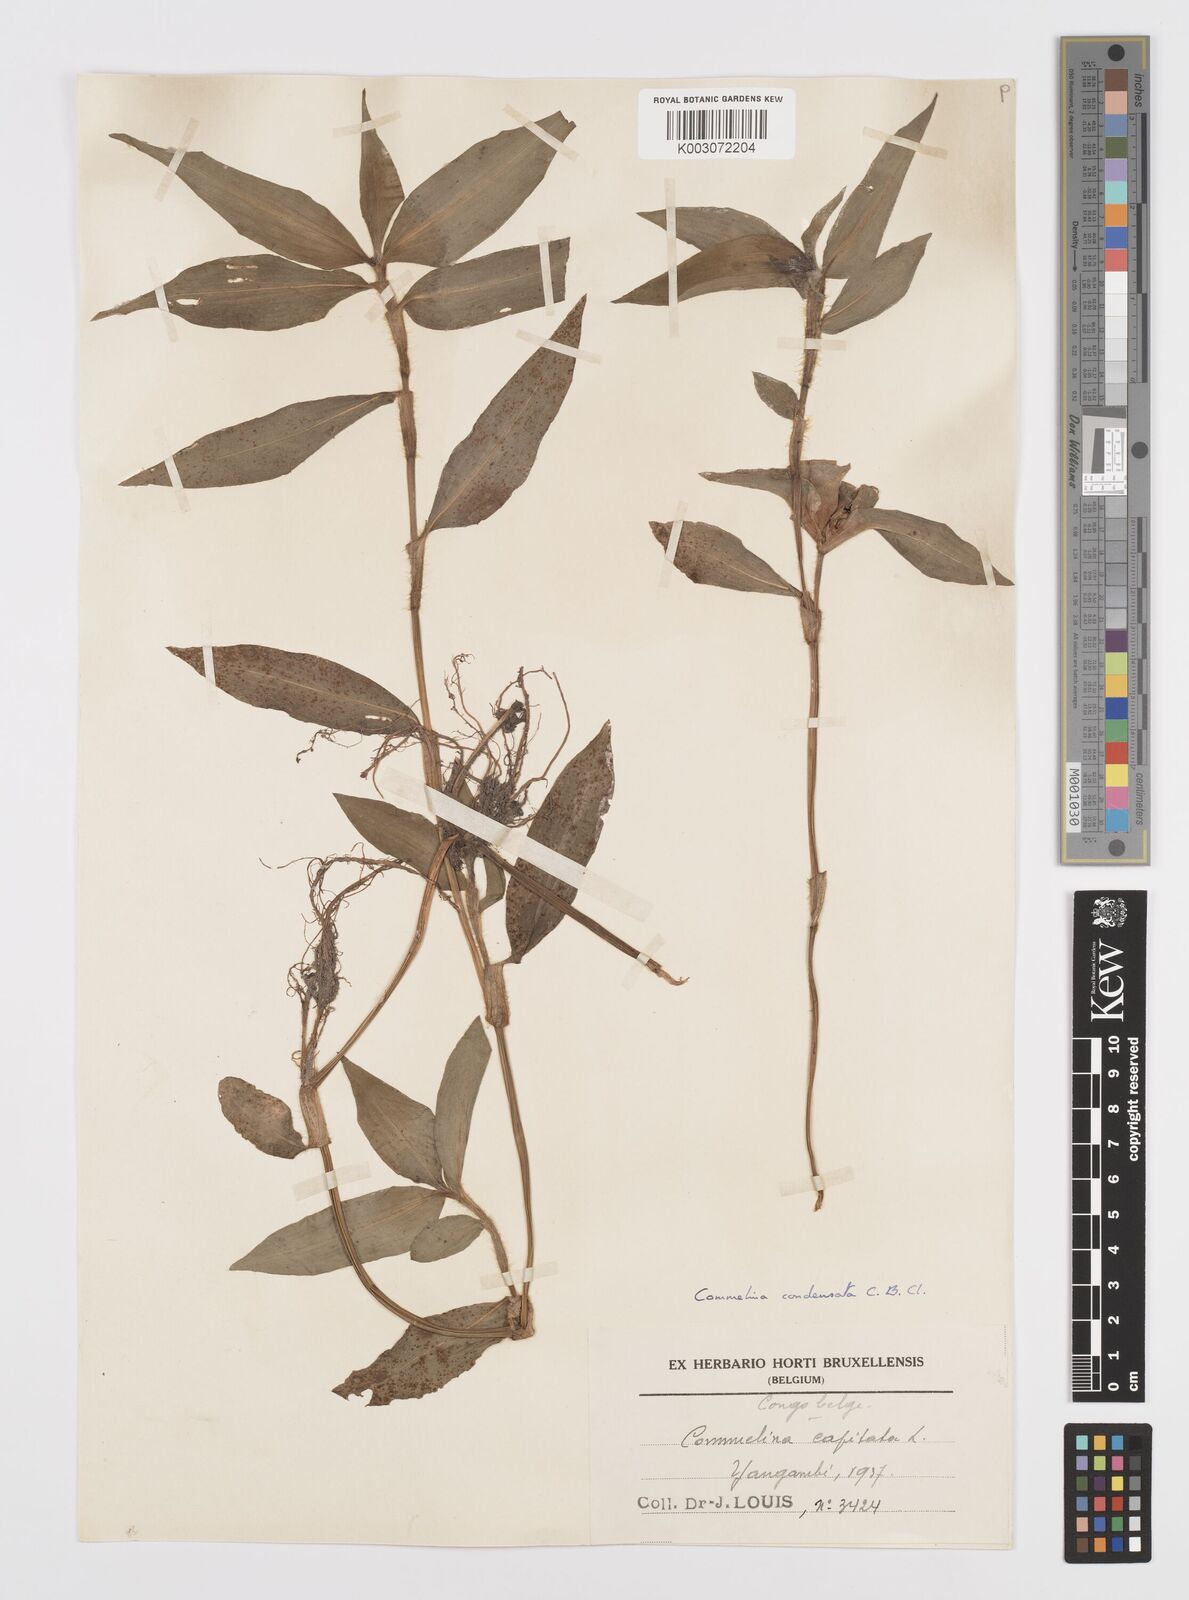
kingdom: Plantae
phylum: Tracheophyta
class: Liliopsida
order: Commelinales
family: Commelinaceae
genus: Commelina
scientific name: Commelina congesta
